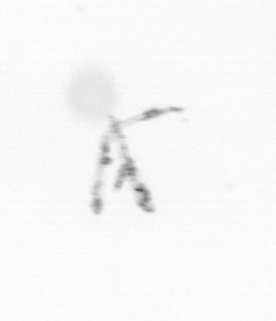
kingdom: Chromista
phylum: Ochrophyta
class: Bacillariophyceae
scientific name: Bacillariophyceae
